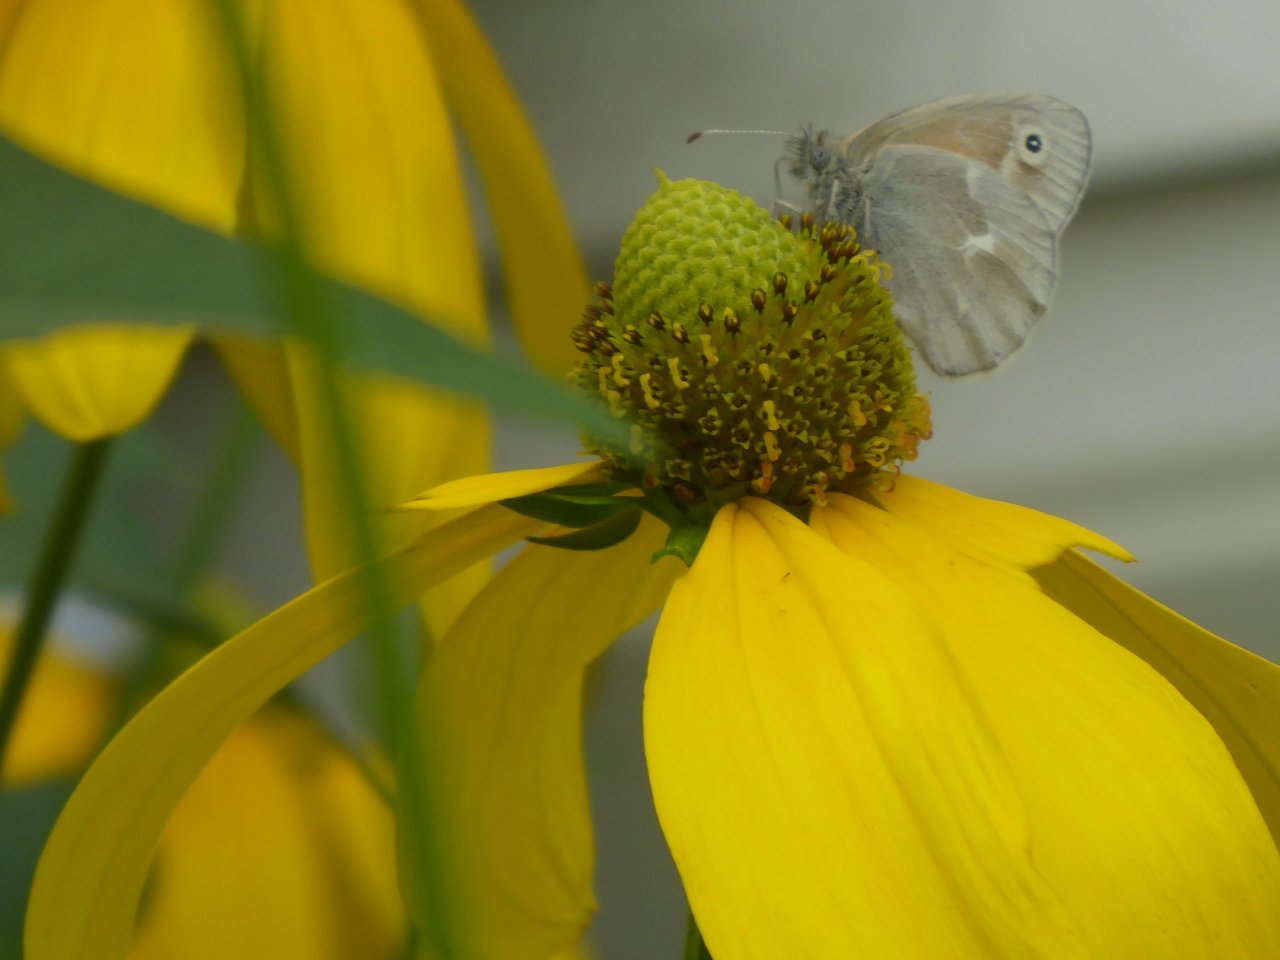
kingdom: Animalia
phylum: Arthropoda
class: Insecta
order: Lepidoptera
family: Nymphalidae
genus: Coenonympha
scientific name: Coenonympha tullia
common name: Large Heath
